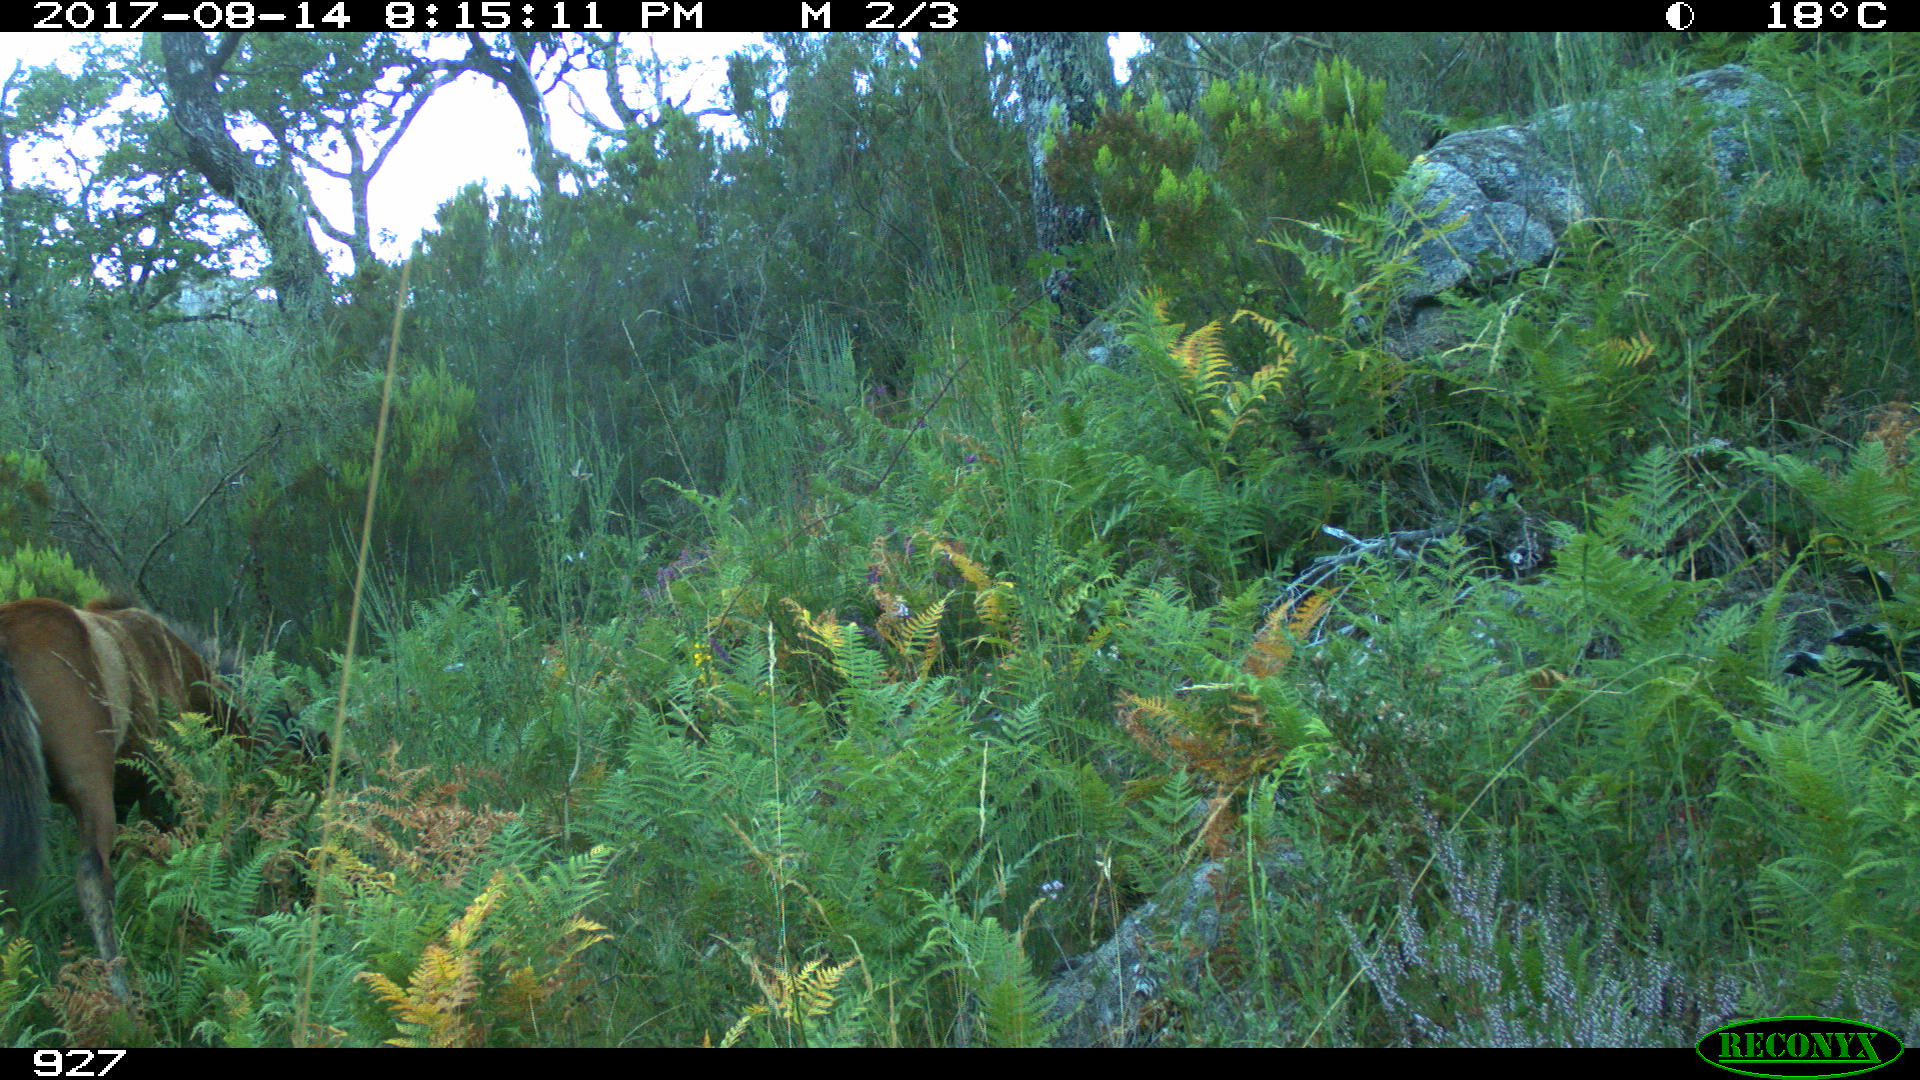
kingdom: Animalia
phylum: Chordata
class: Mammalia
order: Perissodactyla
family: Equidae
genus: Equus
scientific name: Equus caballus
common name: Horse
